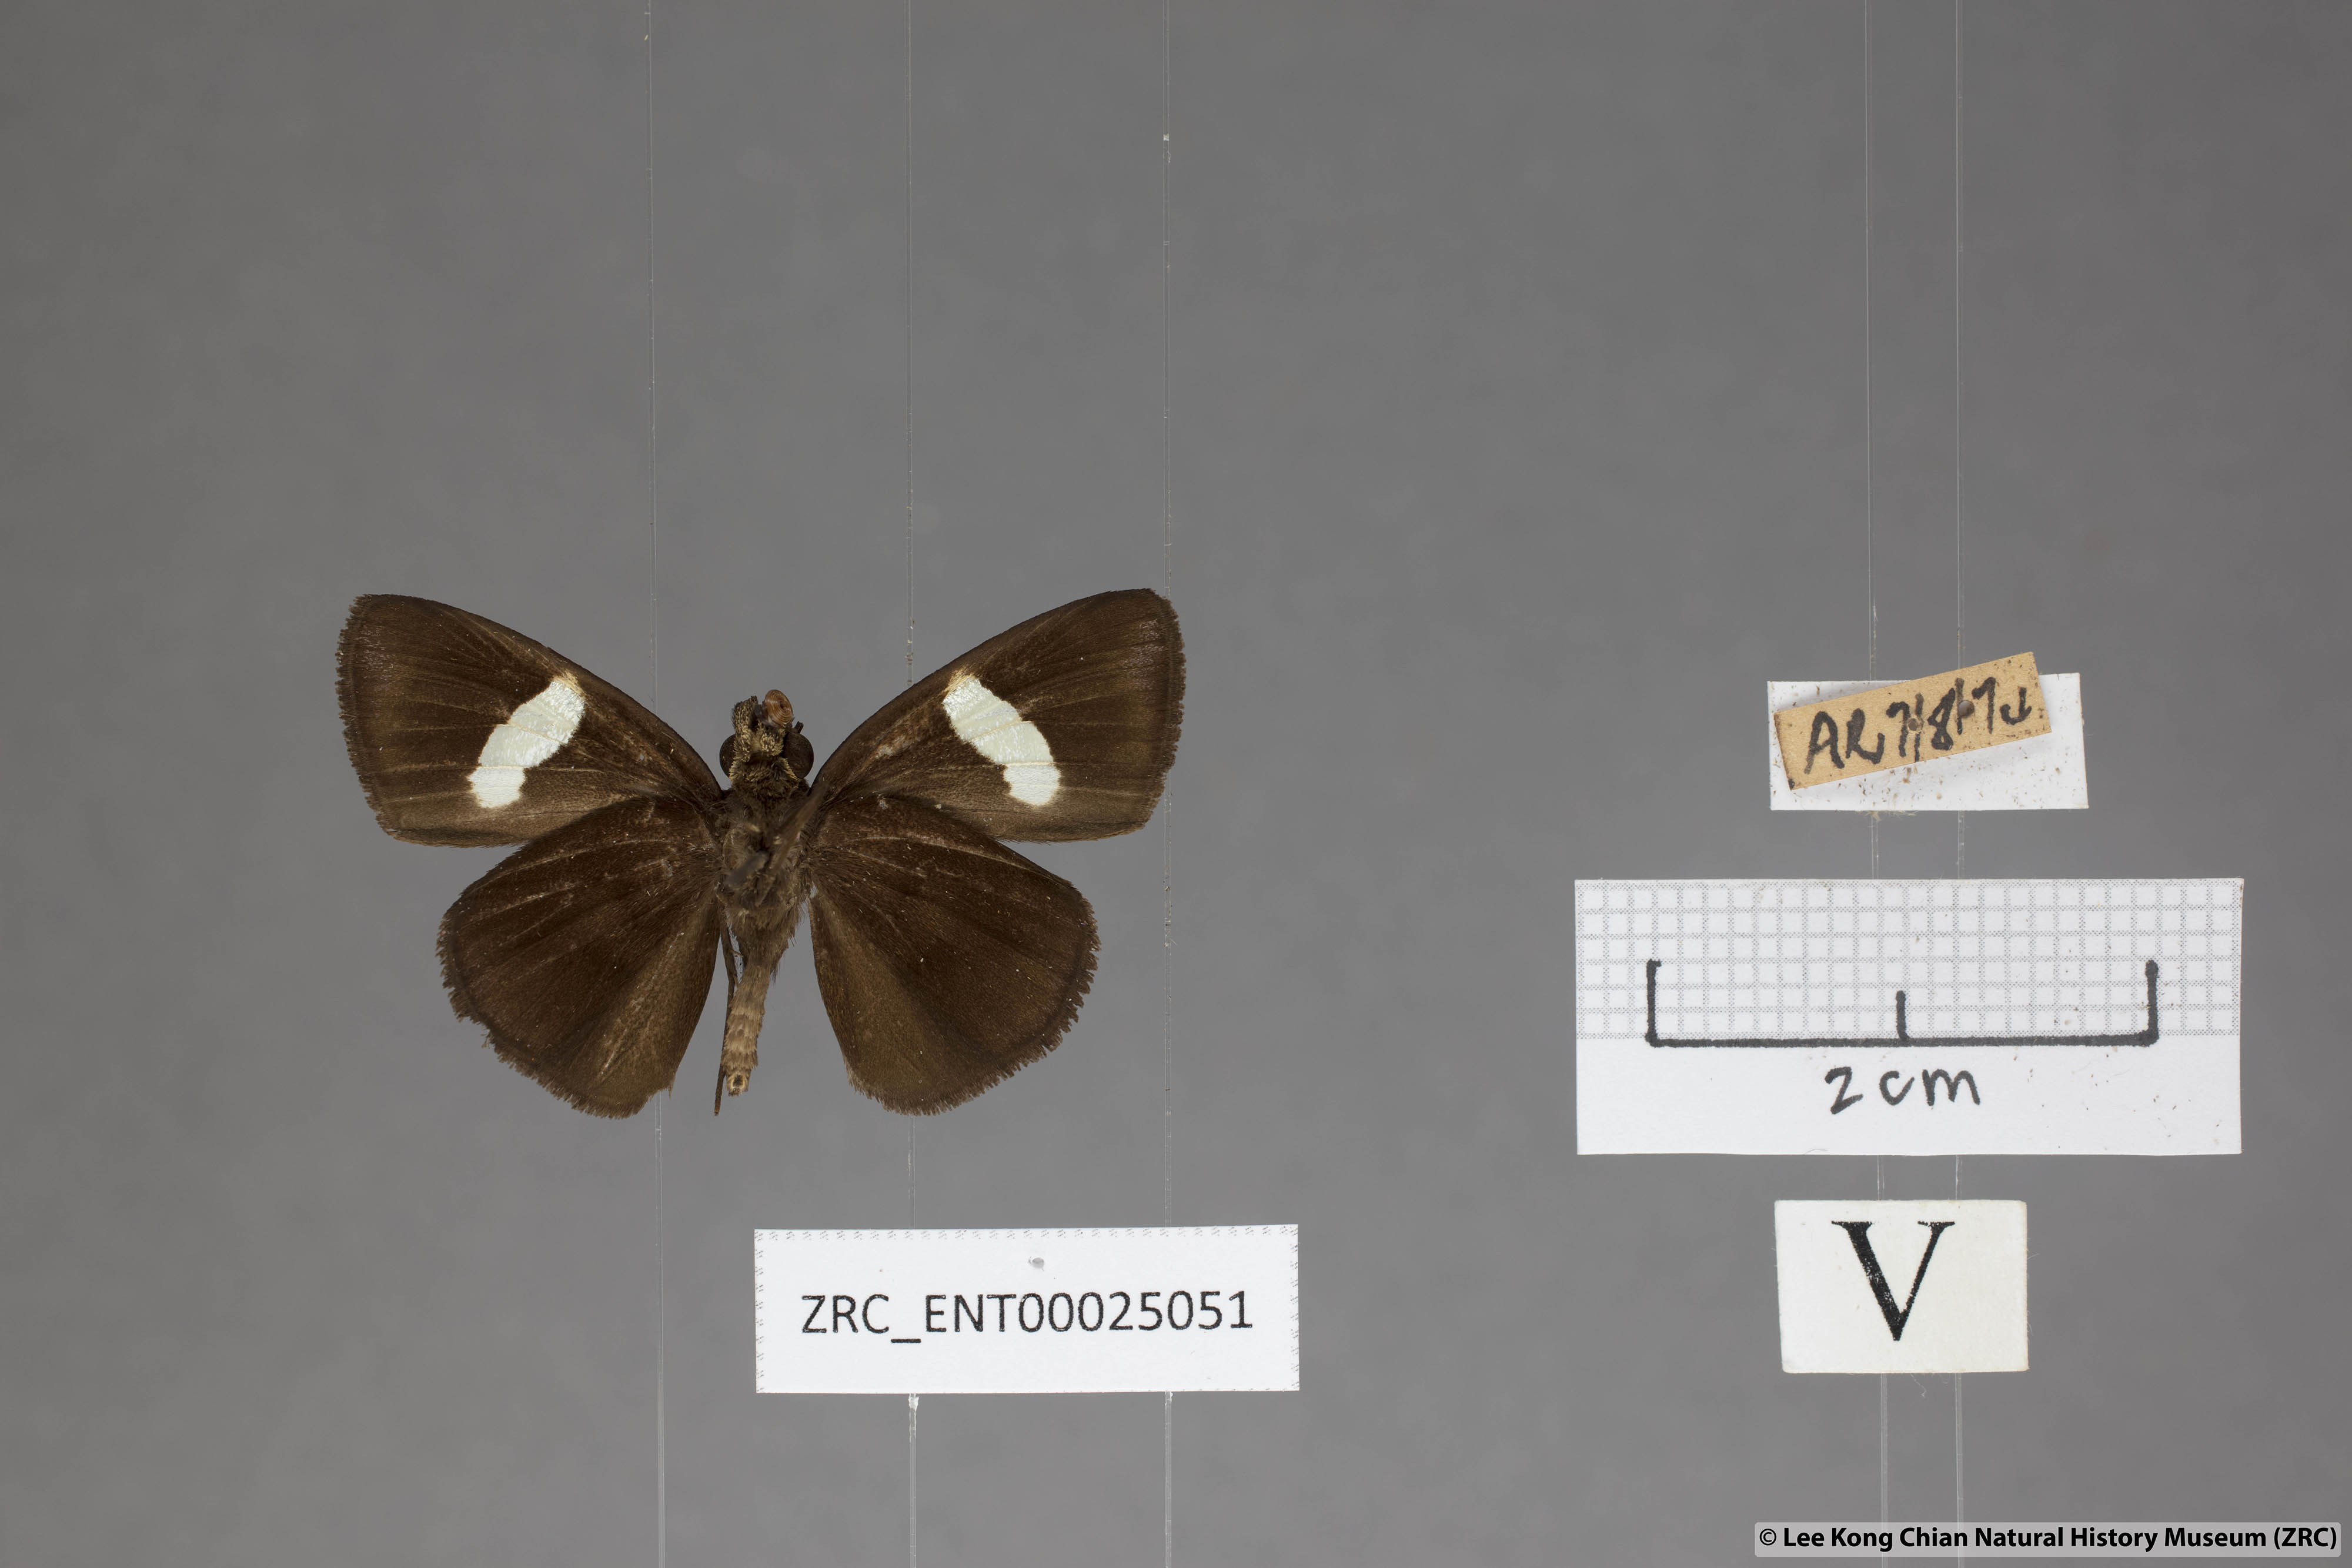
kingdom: Animalia
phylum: Arthropoda
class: Insecta
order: Lepidoptera
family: Hesperiidae
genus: Notocrypta
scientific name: Notocrypta pria
